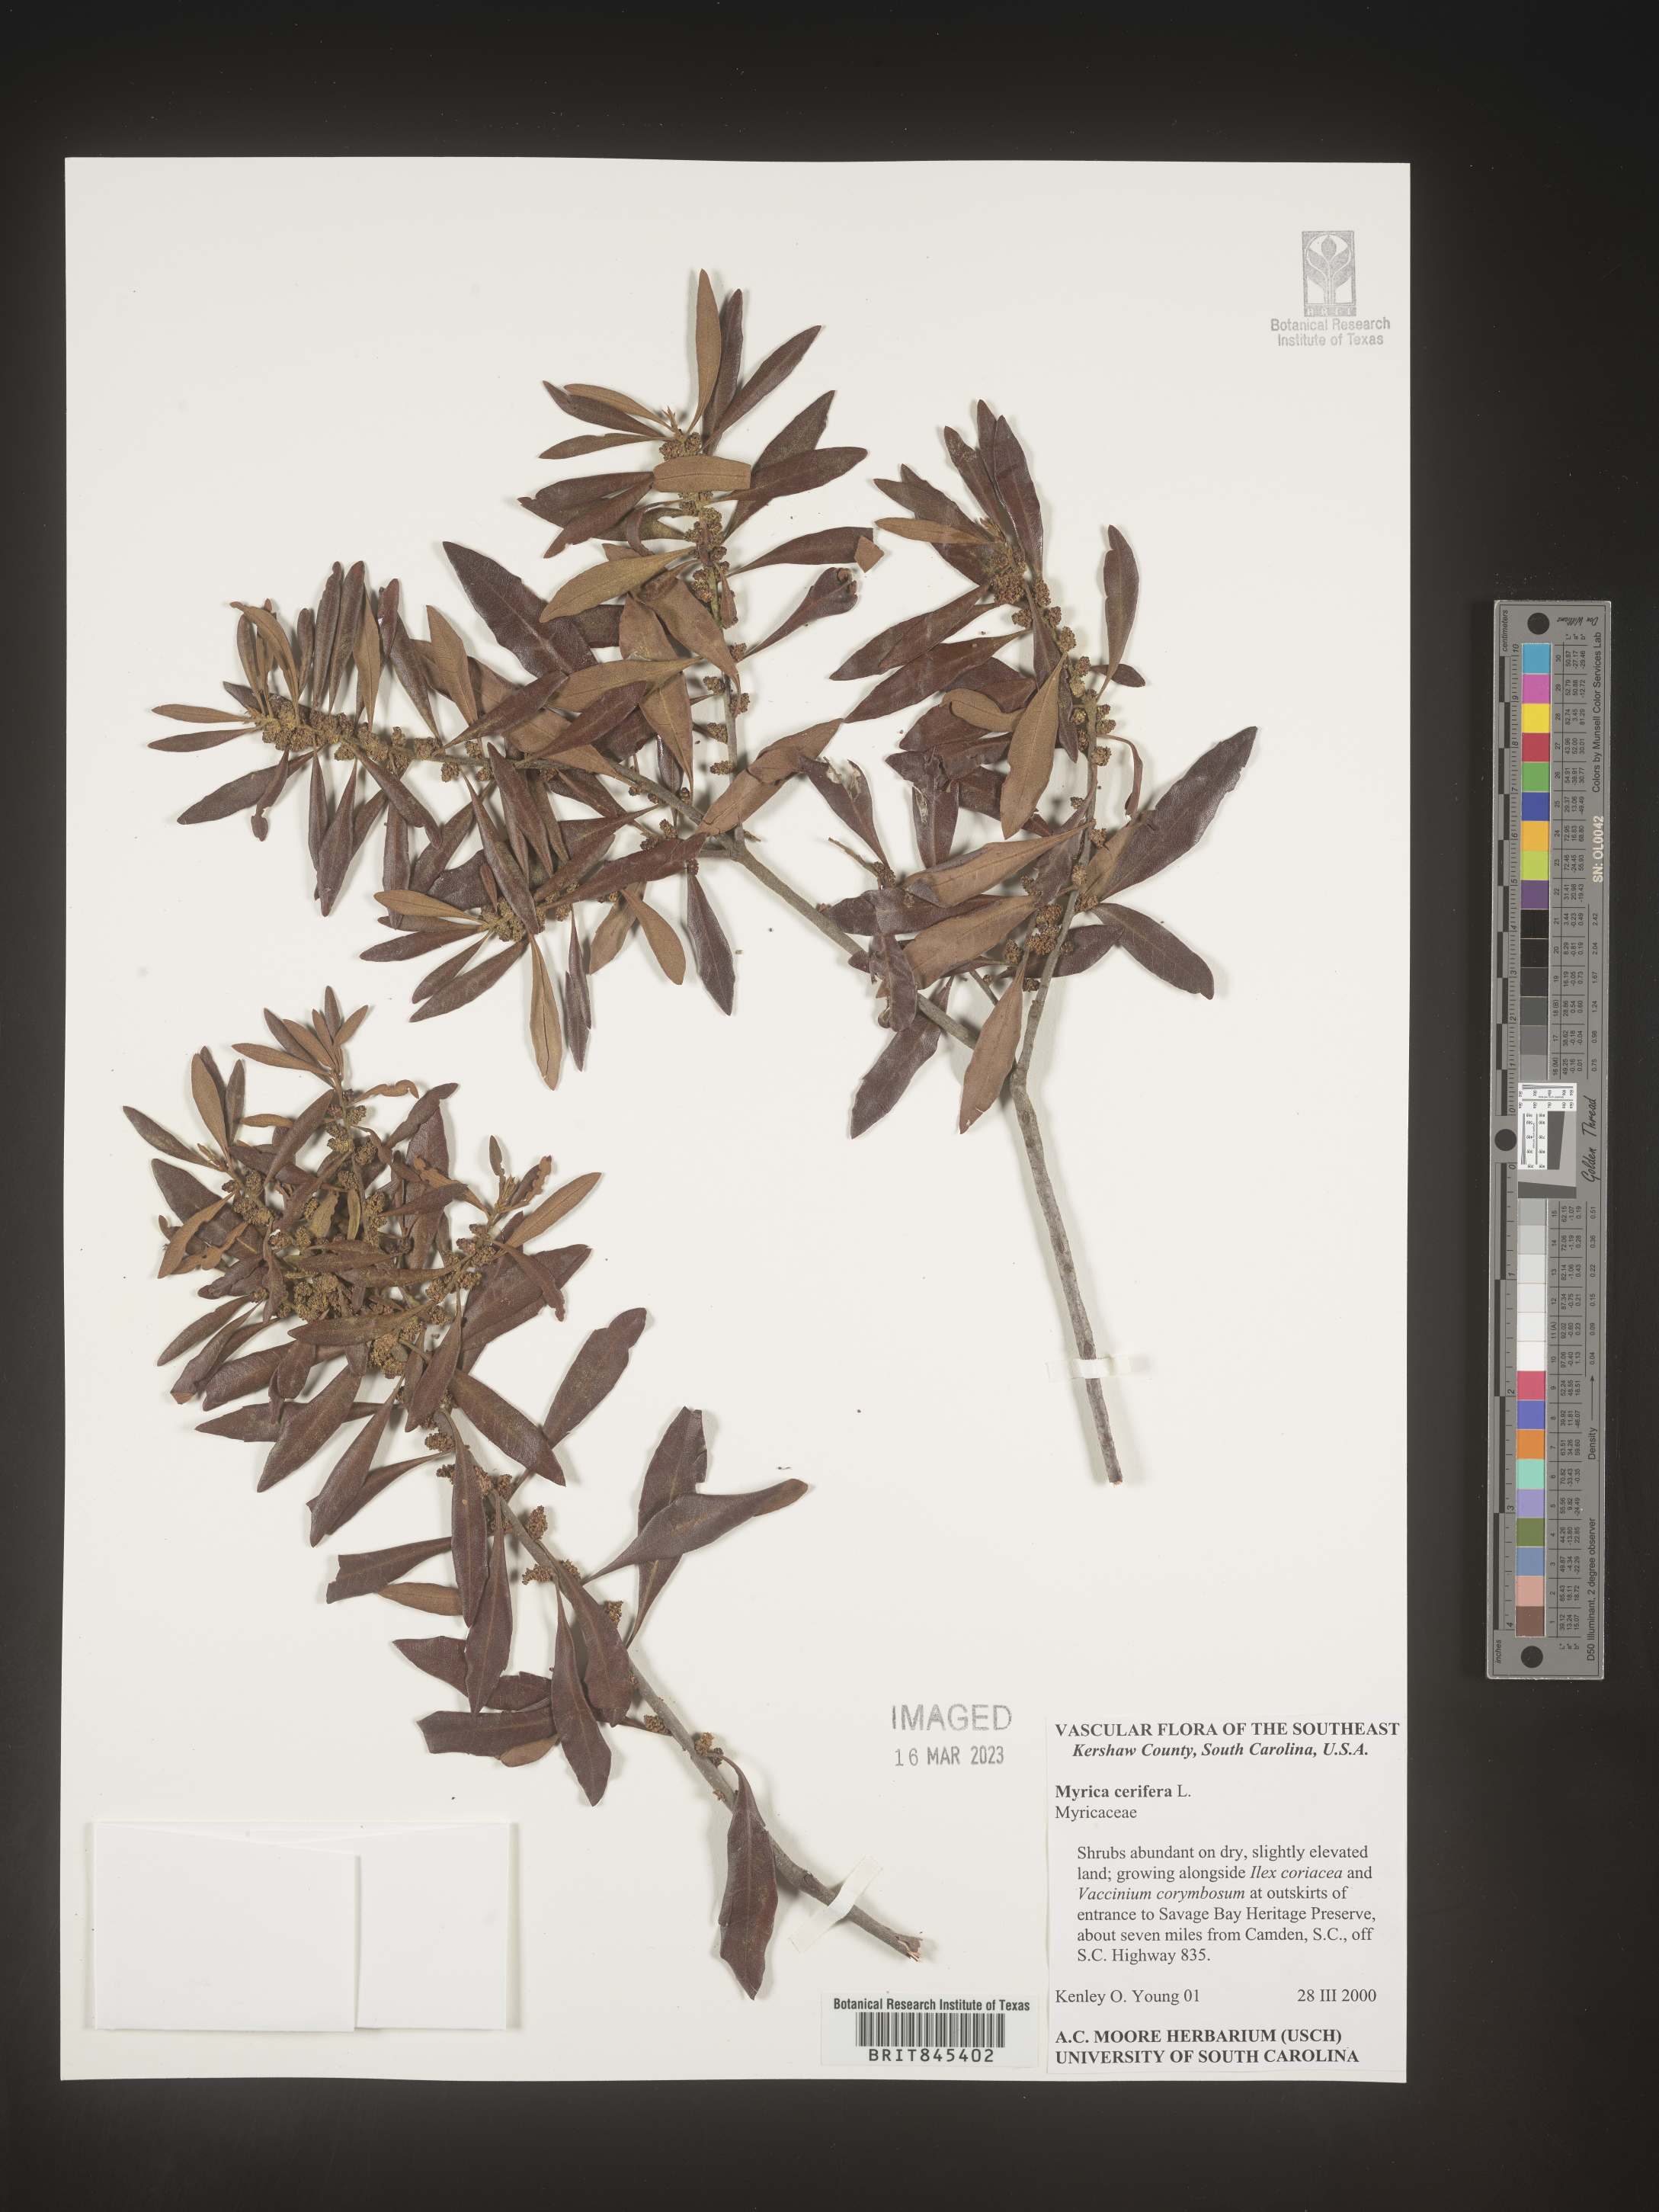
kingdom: Plantae
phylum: Tracheophyta
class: Magnoliopsida
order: Fagales
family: Myricaceae
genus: Morella
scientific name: Morella cerifera
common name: Wax myrtle
